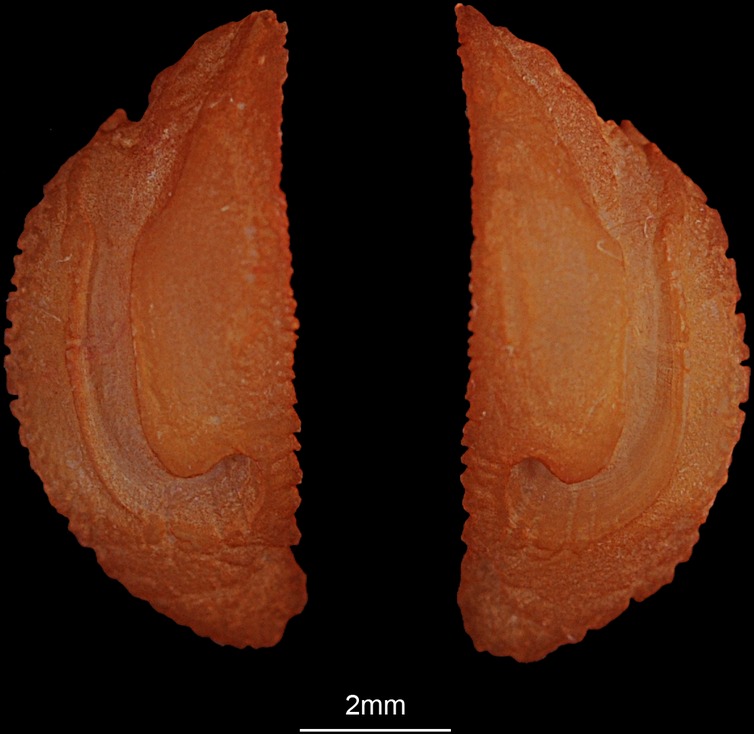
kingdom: Animalia
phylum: Chordata
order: Perciformes
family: Haemulidae
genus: Plectorhinchus
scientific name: Plectorhinchus gaterinus
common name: Blackspotted rubberlip
